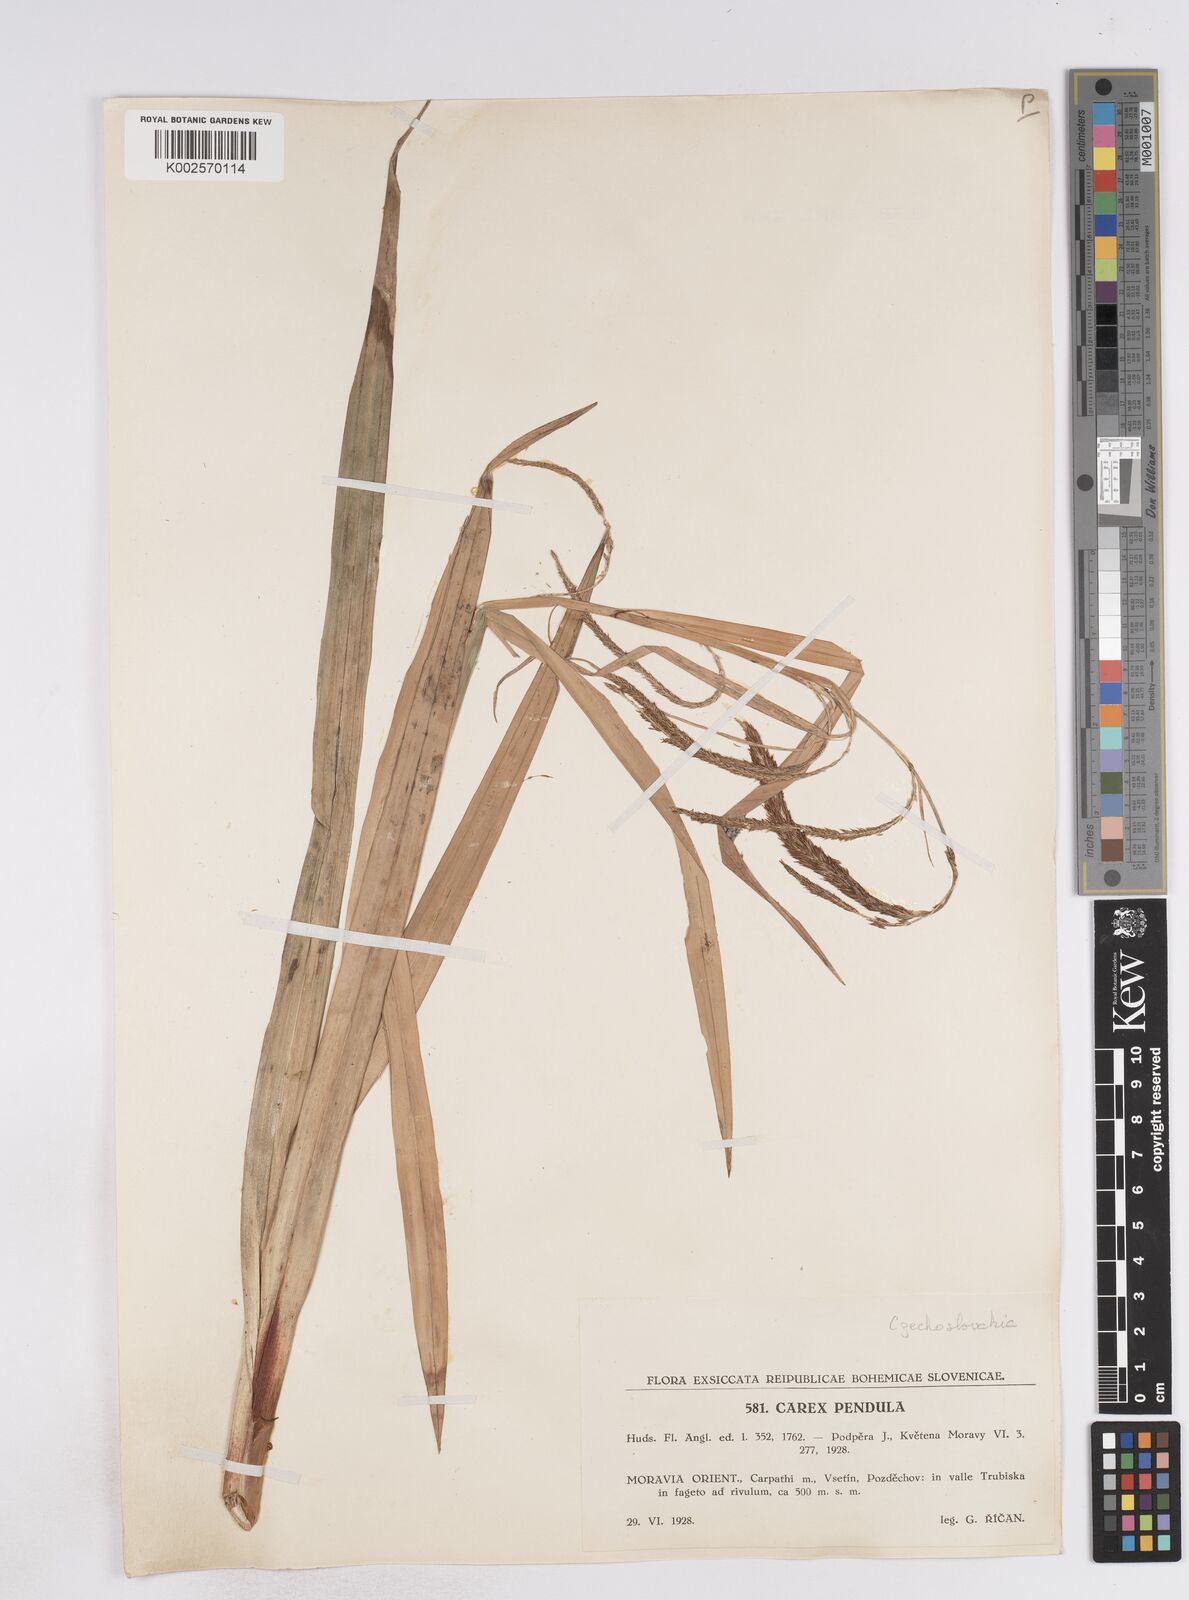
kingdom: Plantae
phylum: Tracheophyta
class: Liliopsida
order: Poales
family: Cyperaceae
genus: Carex
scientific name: Carex pendula
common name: Pendulous sedge
